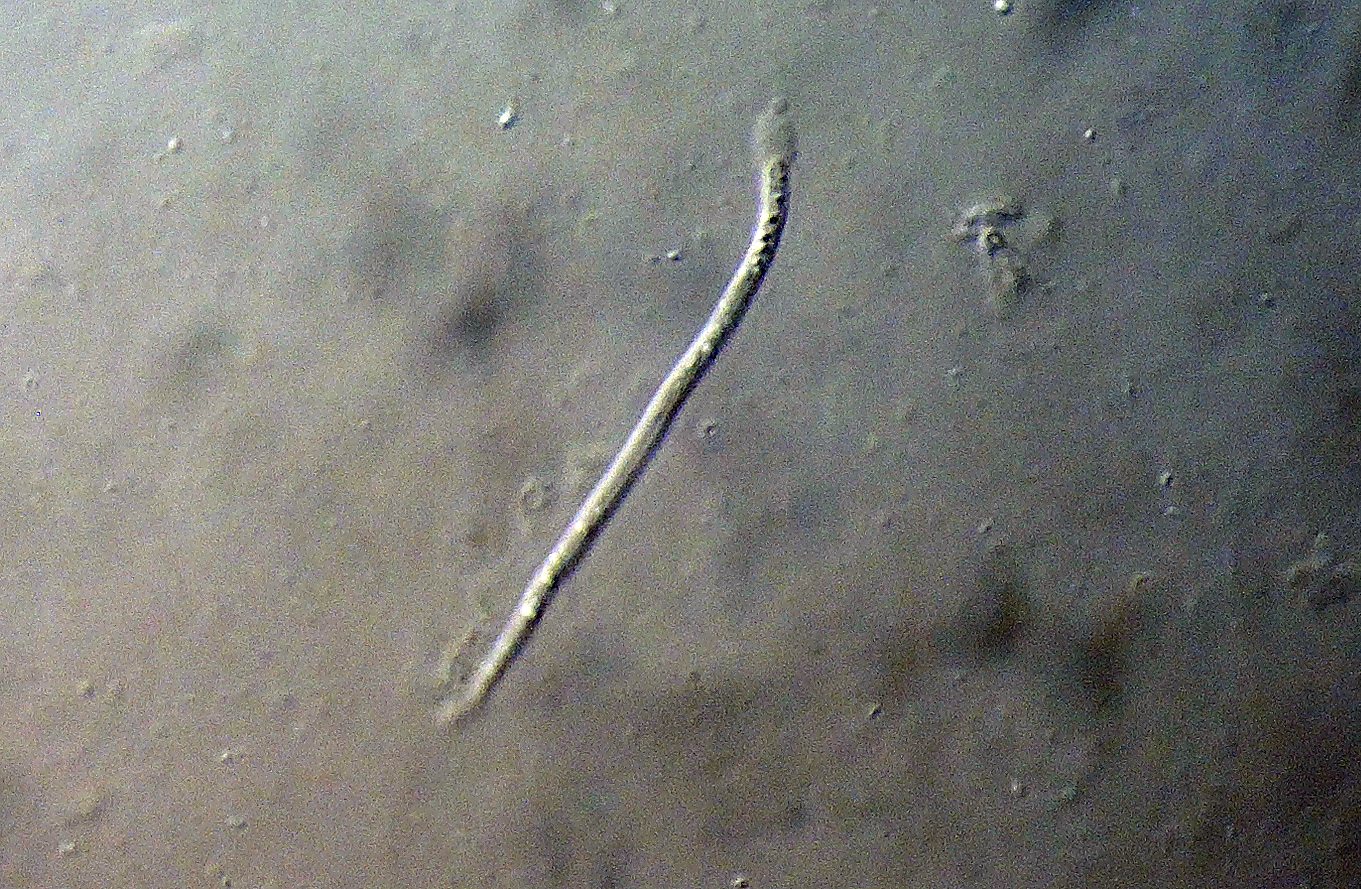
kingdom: Fungi
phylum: Ascomycota
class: Leotiomycetes
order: Rhytismatales
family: Rhytismataceae
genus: Lophodermium
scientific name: Lophodermium
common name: fureplet
